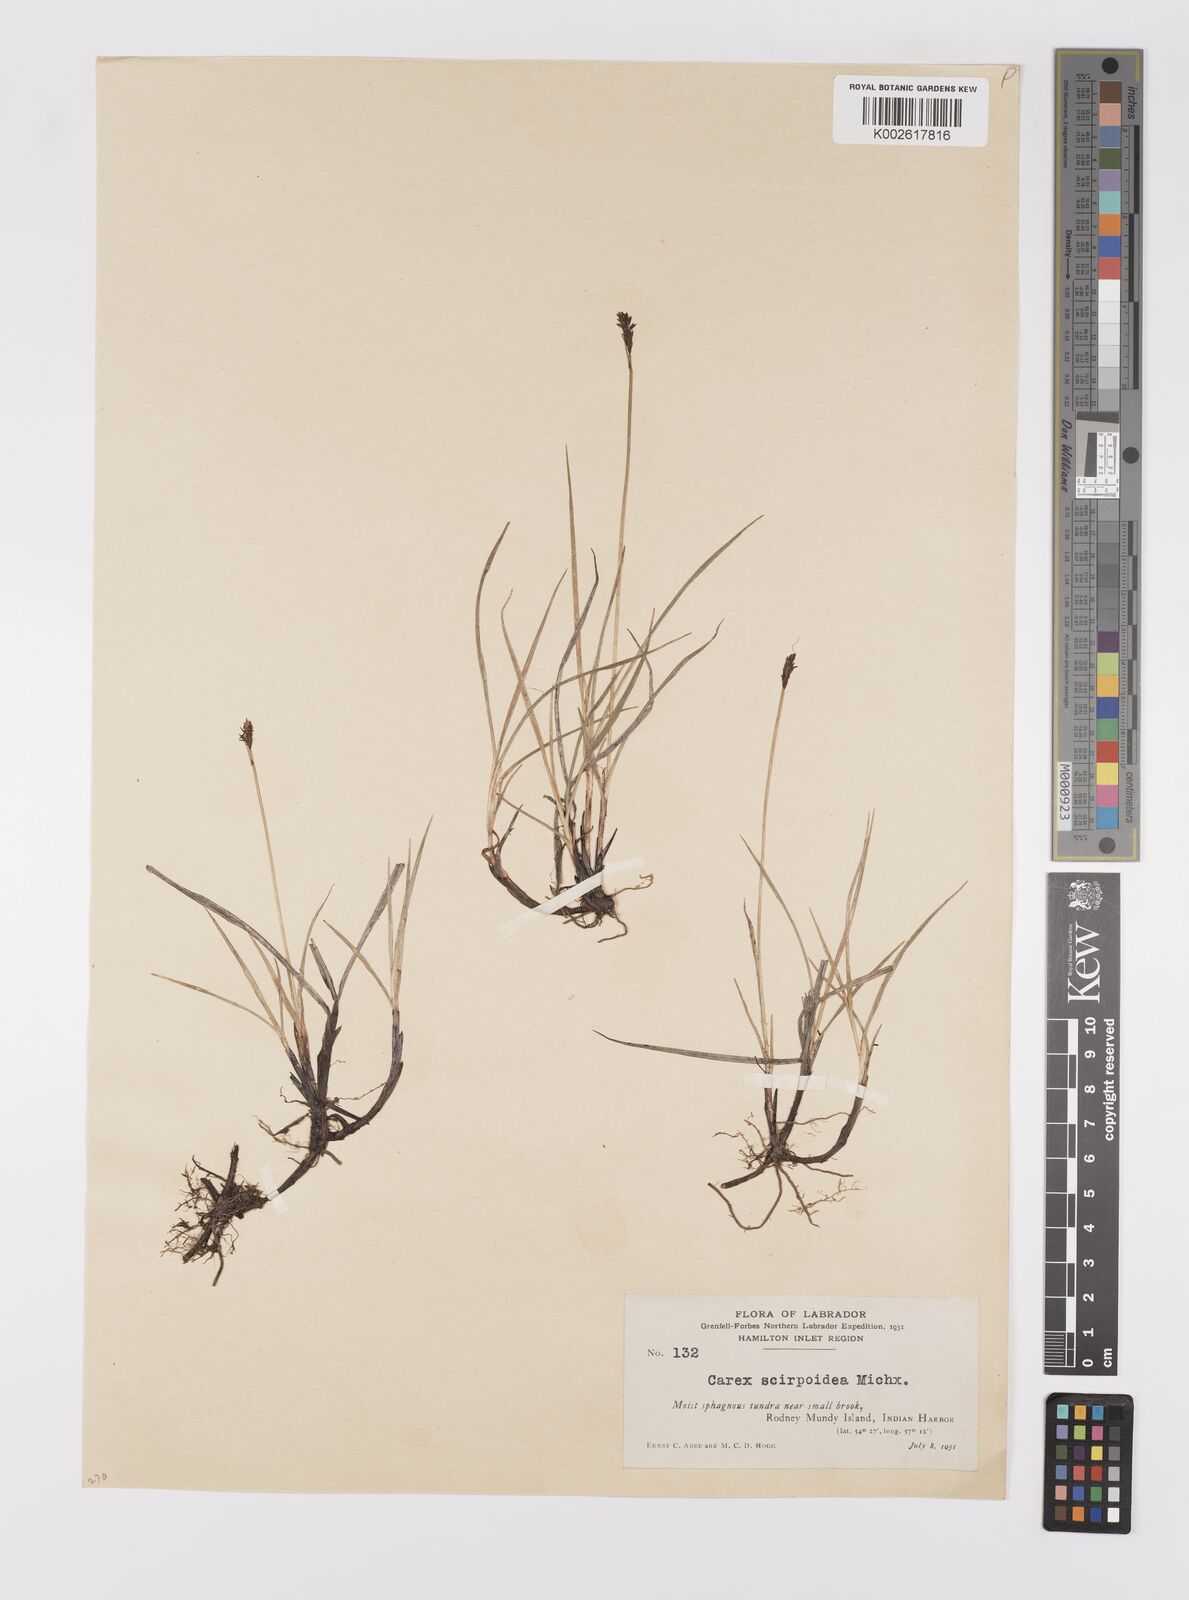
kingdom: Plantae
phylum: Tracheophyta
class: Liliopsida
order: Poales
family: Cyperaceae
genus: Carex
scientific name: Carex scirpoidea
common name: Canada single-spike sedge
